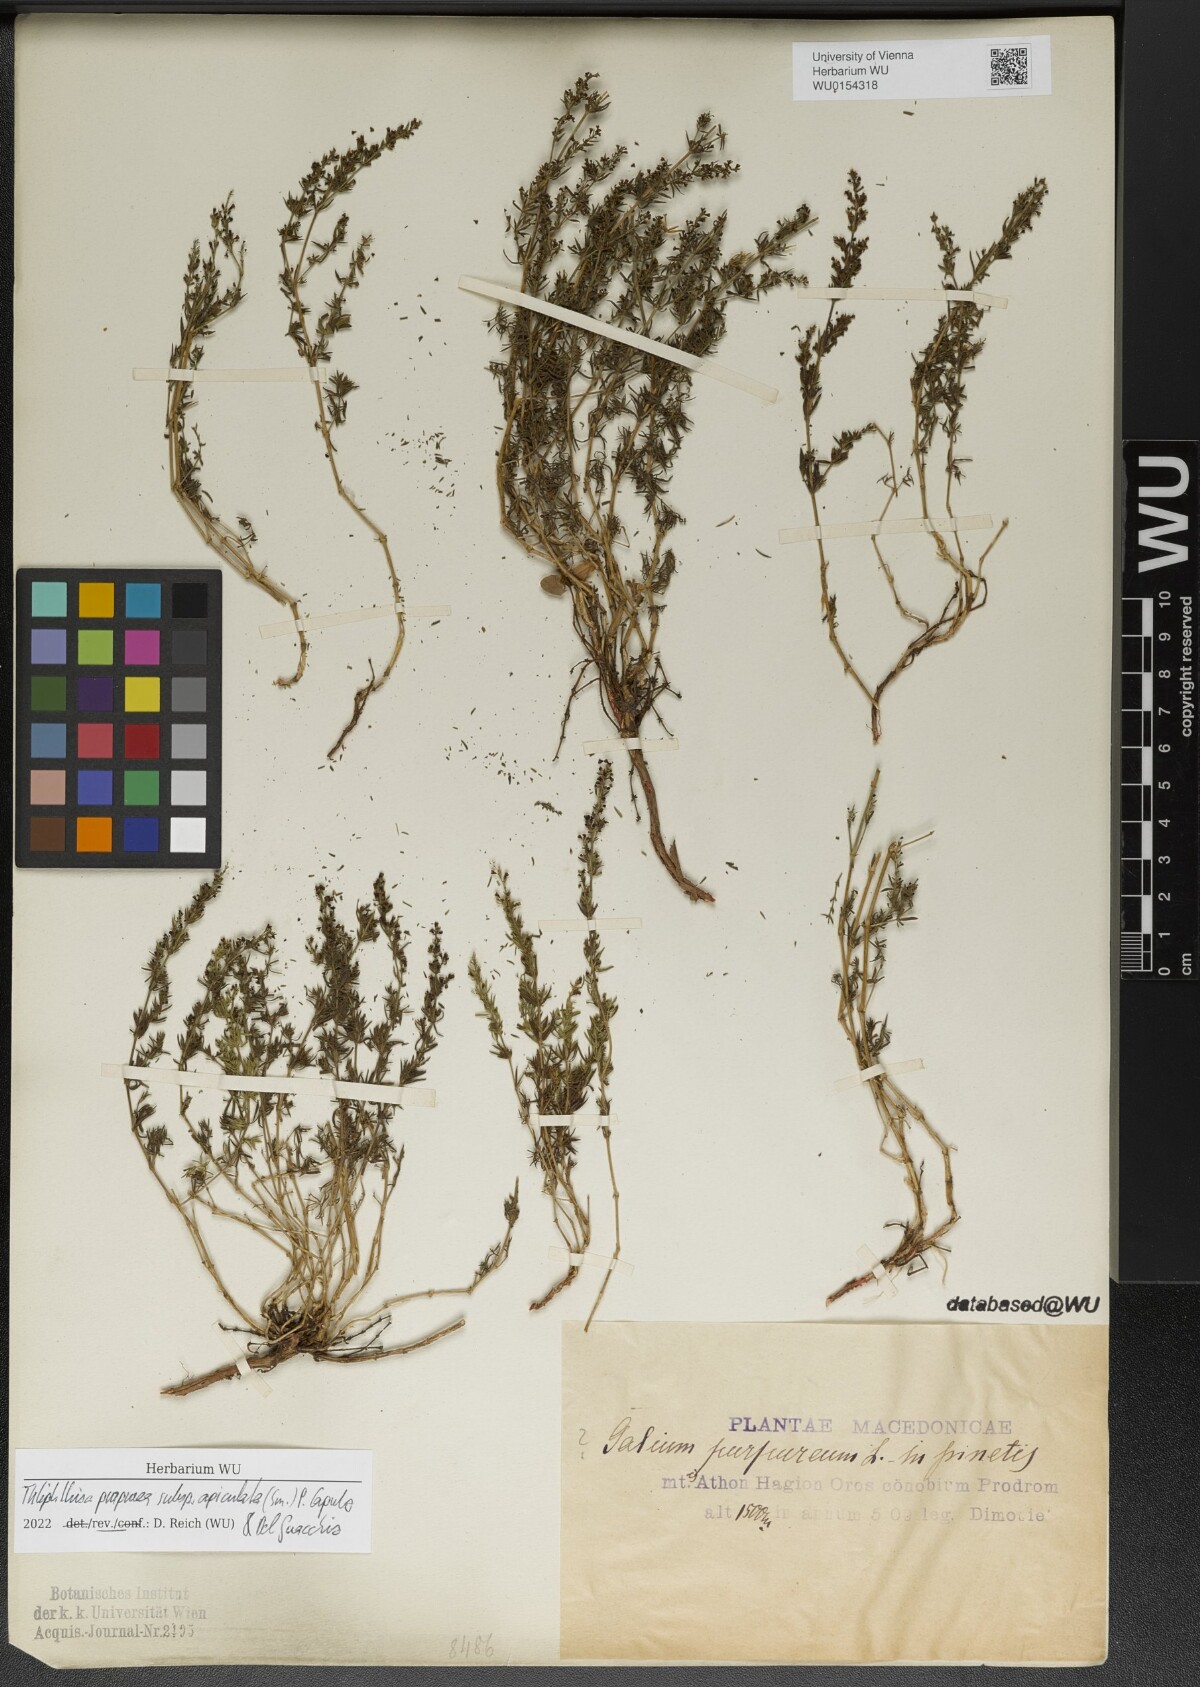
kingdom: Plantae
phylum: Tracheophyta
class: Magnoliopsida
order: Gentianales
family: Rubiaceae
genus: Thliphthisa
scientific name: Thliphthisa purpurea
